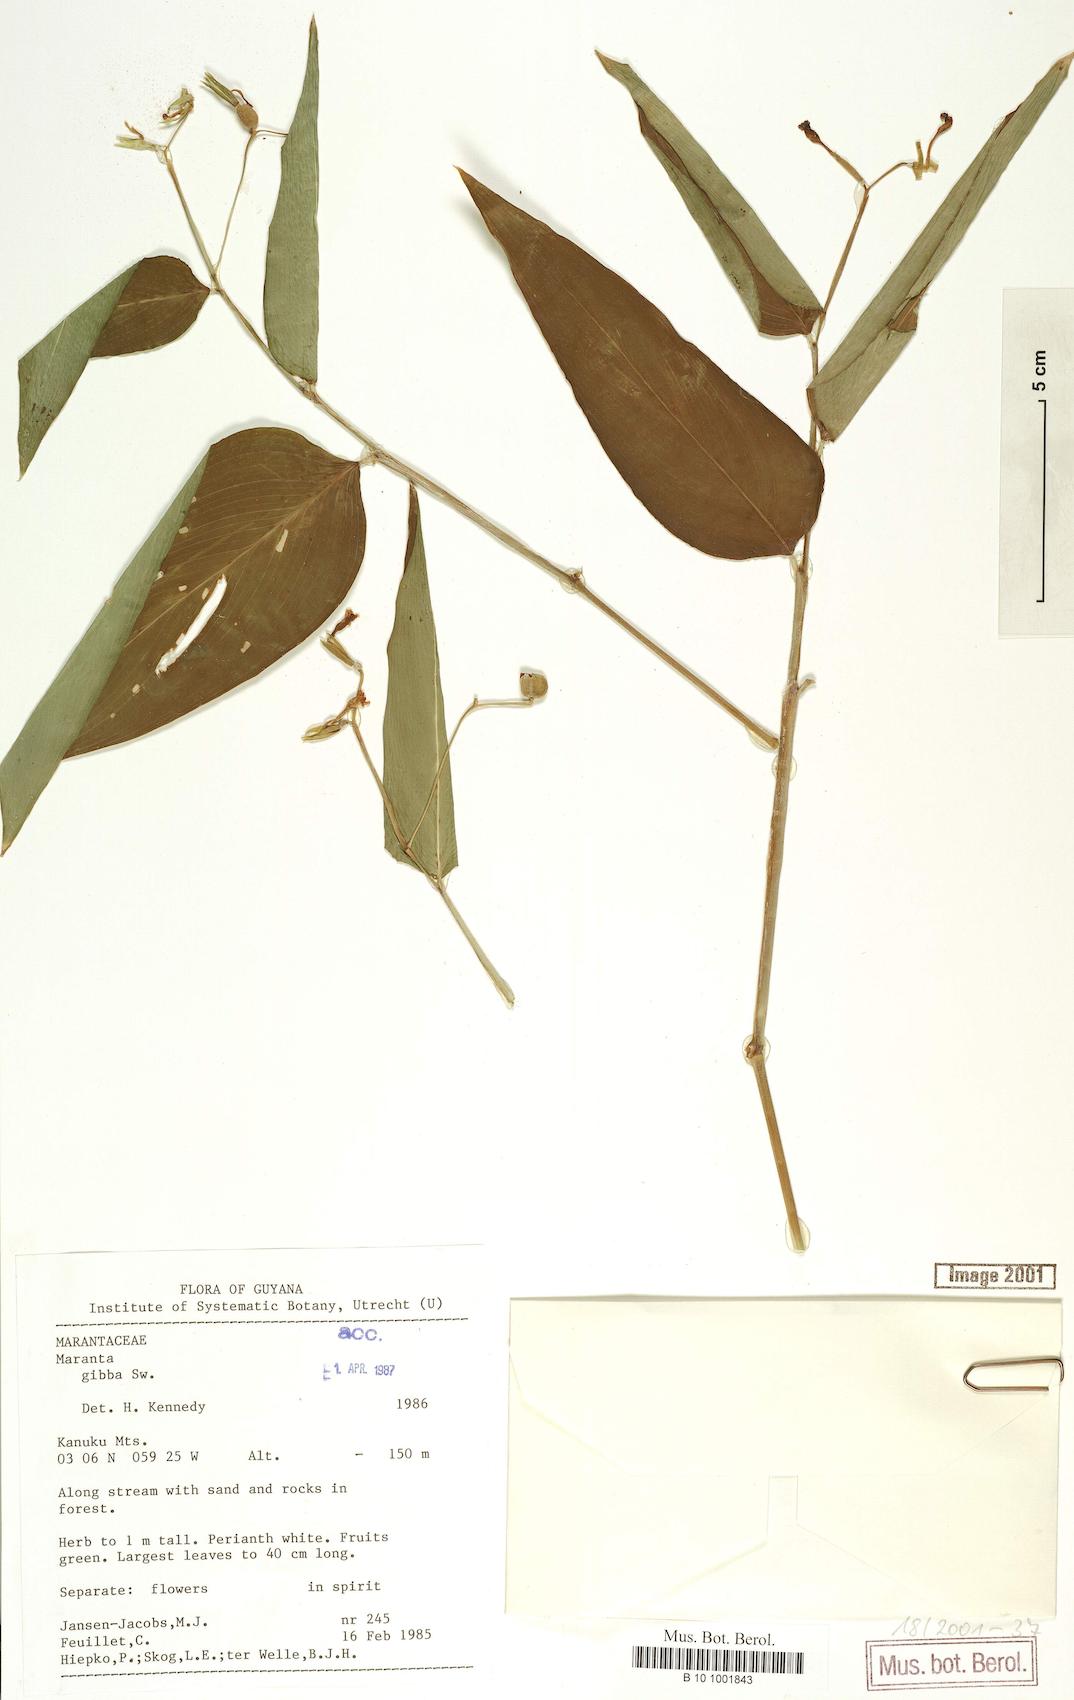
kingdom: Plantae
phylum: Tracheophyta
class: Liliopsida
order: Zingiberales
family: Marantaceae
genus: Maranta
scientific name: Maranta gibba
